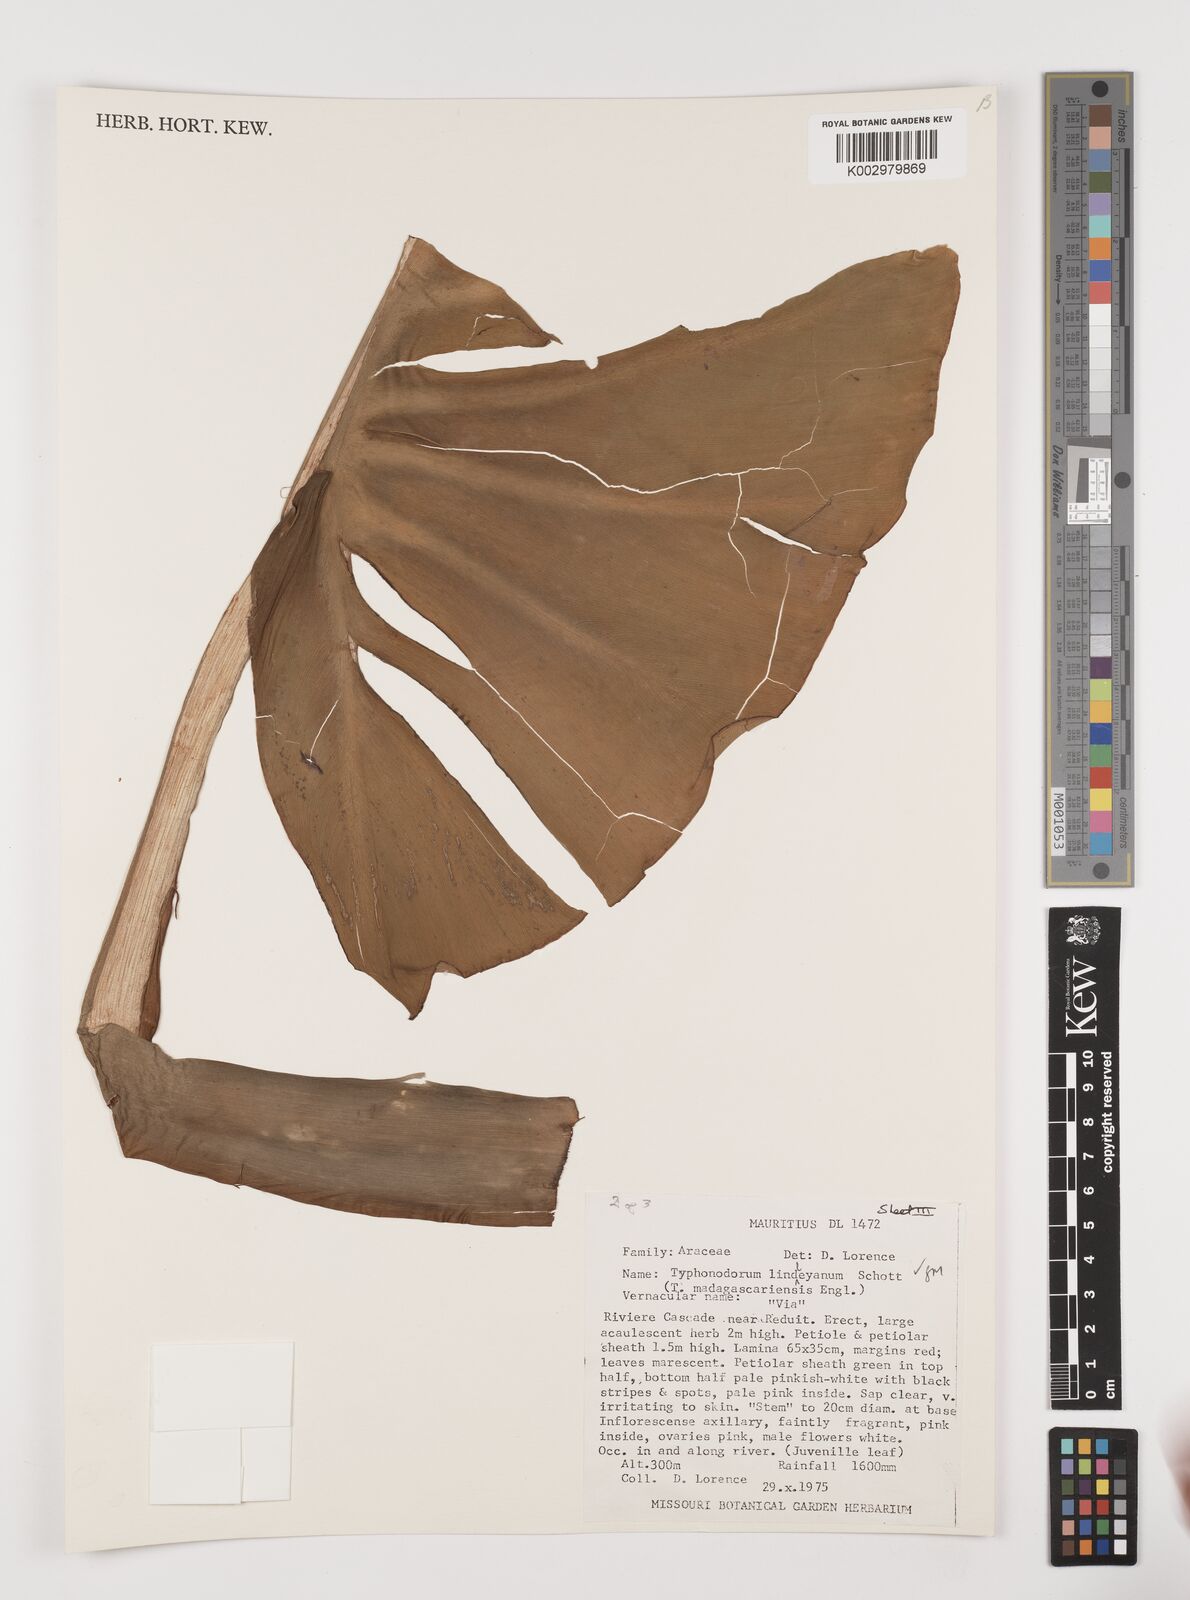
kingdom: Plantae
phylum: Tracheophyta
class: Liliopsida
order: Alismatales
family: Araceae
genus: Typhonodorum
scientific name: Typhonodorum lindleyanum
